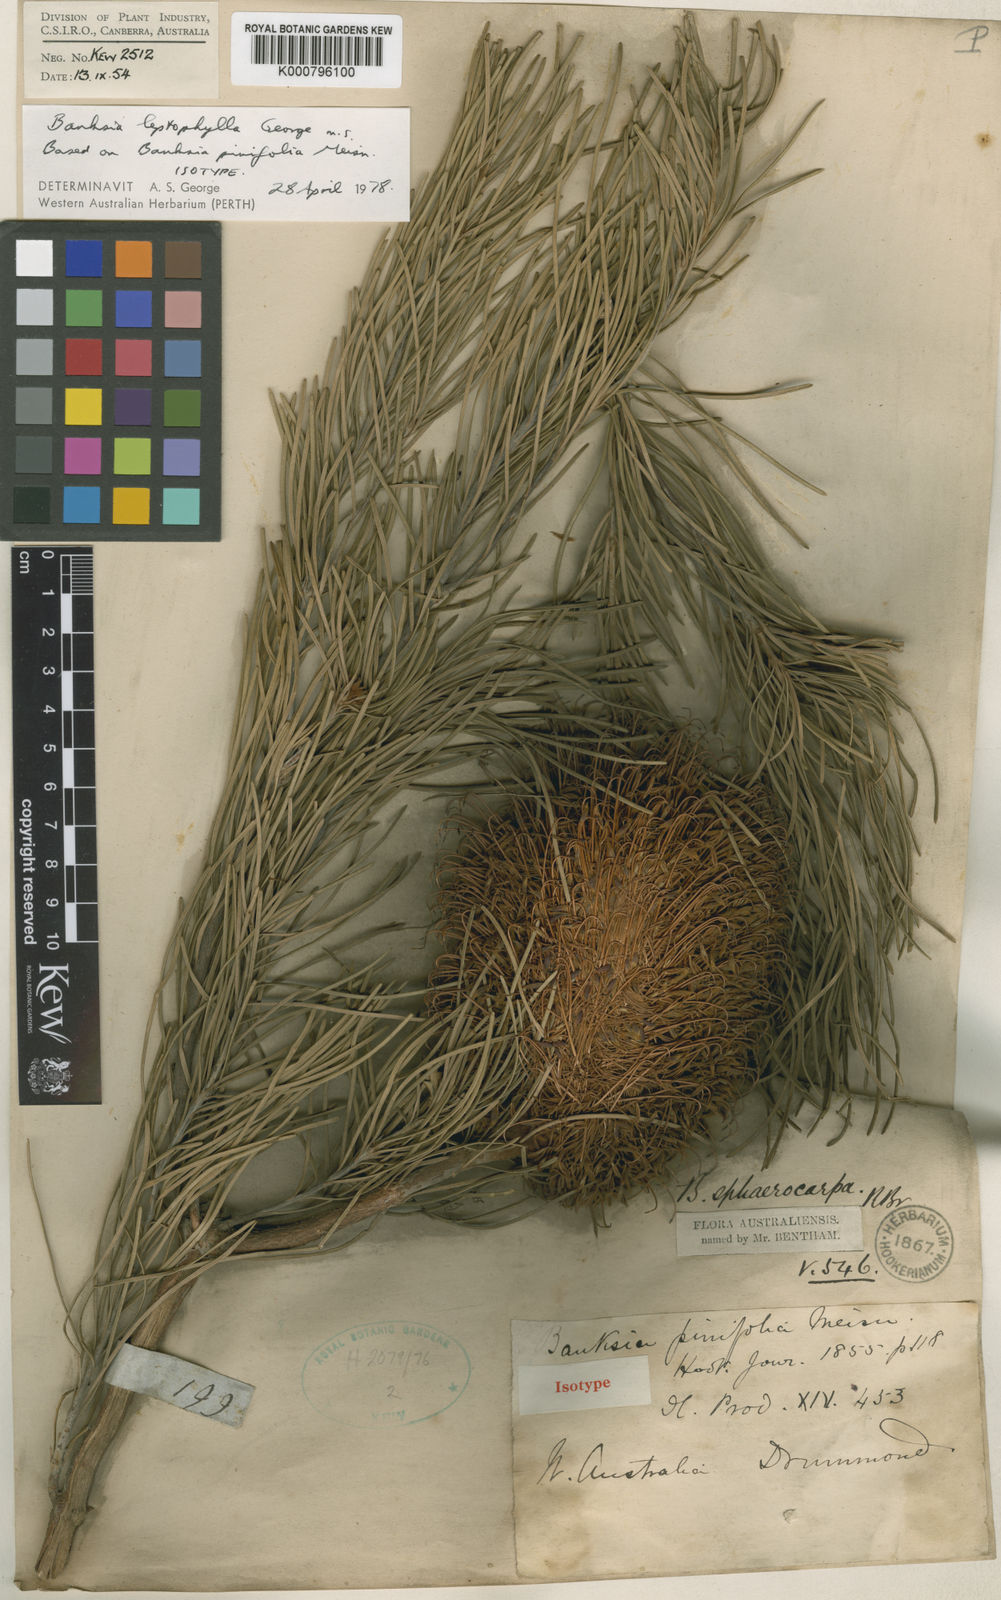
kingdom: Plantae
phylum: Tracheophyta
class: Magnoliopsida
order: Proteales
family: Proteaceae
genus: Banksia
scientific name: Banksia leptophylla
